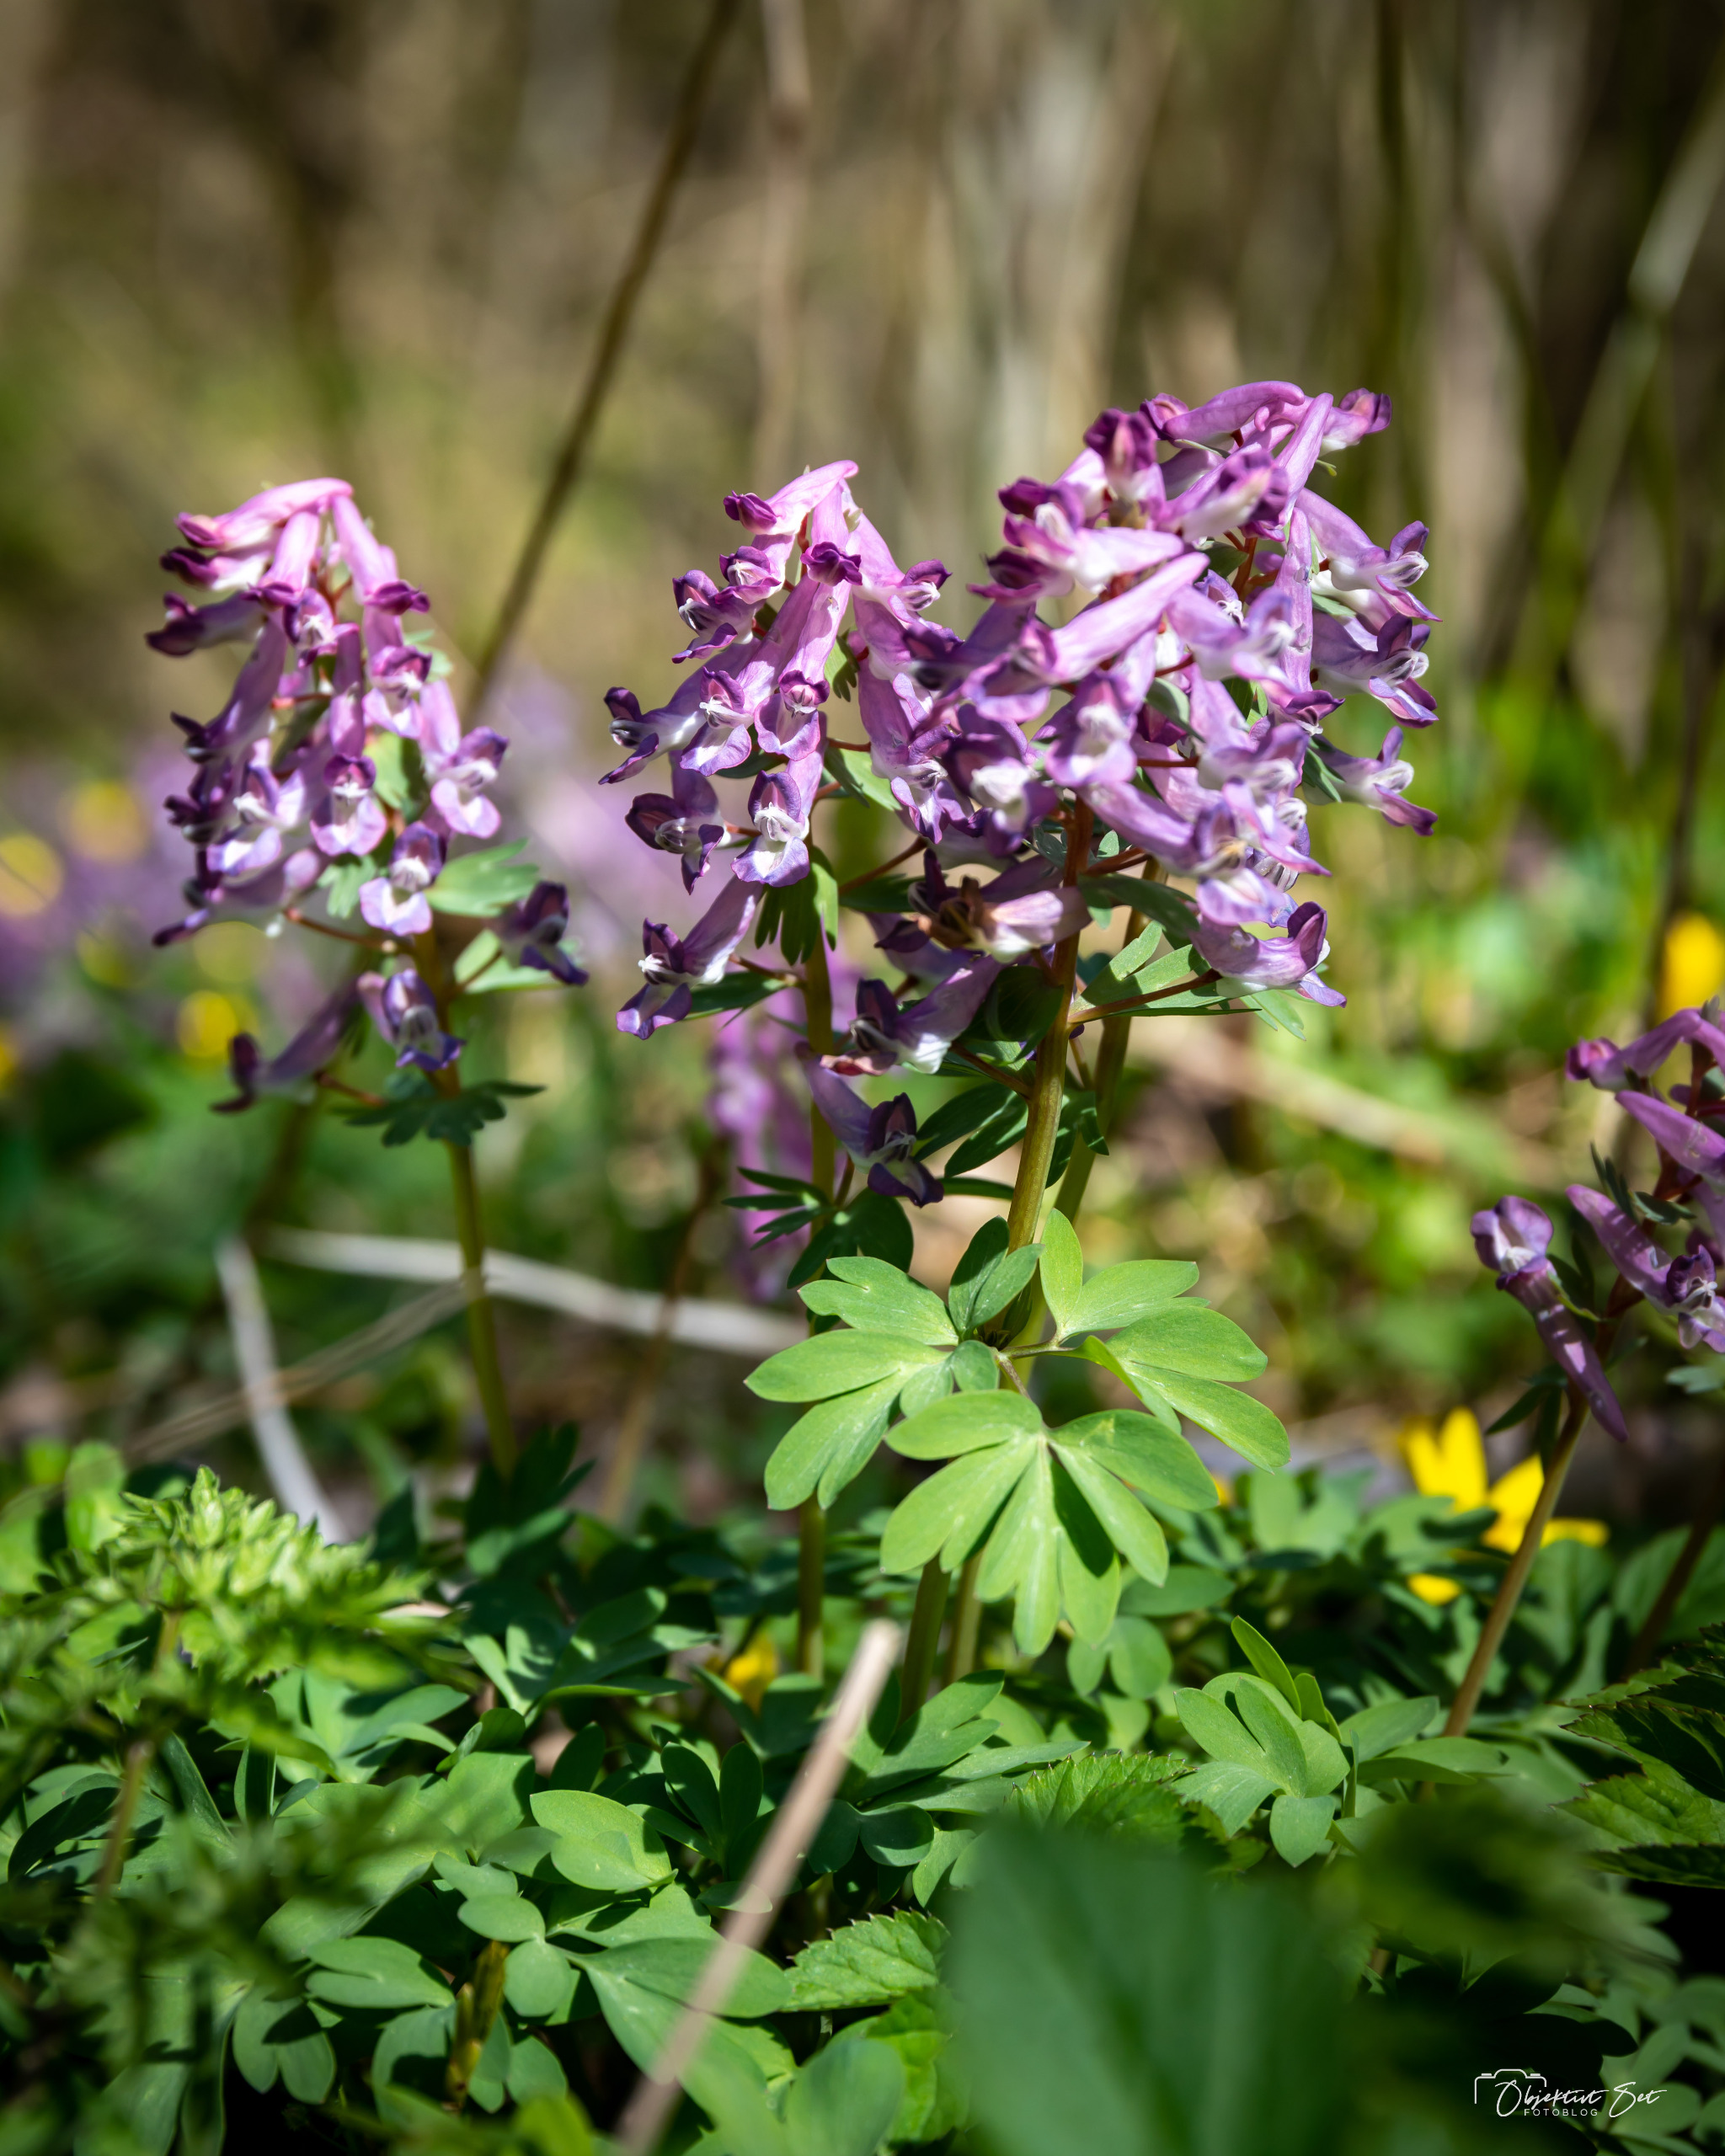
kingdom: Plantae
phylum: Tracheophyta
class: Magnoliopsida
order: Ranunculales
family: Papaveraceae
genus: Corydalis
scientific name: Corydalis solida
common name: Langstilket lærkespore
